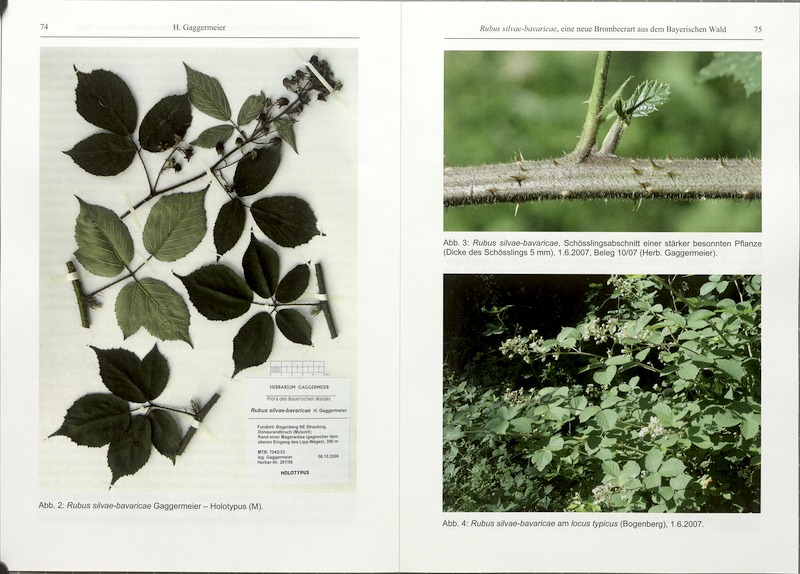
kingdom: Plantae
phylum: Tracheophyta
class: Magnoliopsida
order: Rosales
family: Rosaceae
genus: Rubus
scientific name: Rubus silvae-bavaricae
